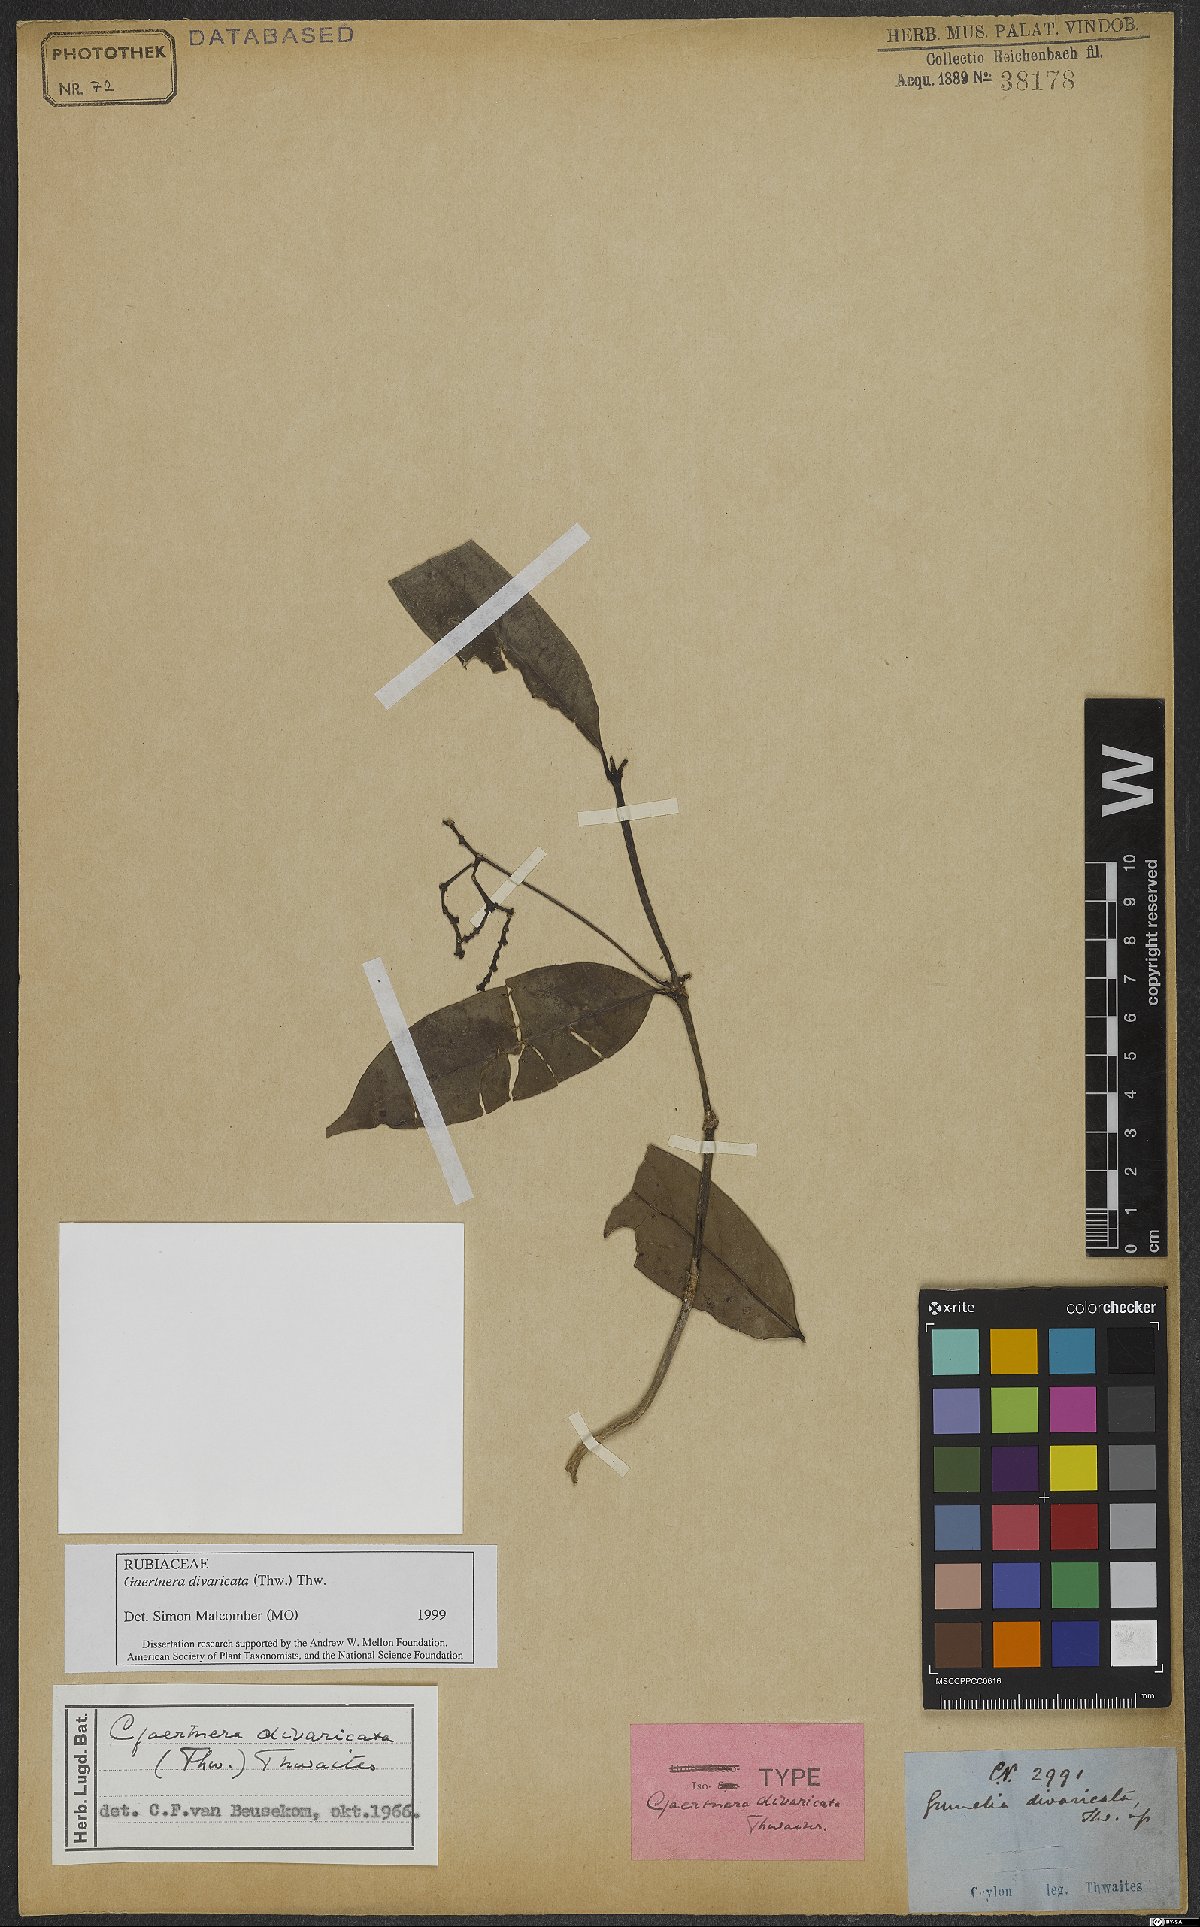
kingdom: Plantae
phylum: Tracheophyta
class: Magnoliopsida
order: Gentianales
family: Rubiaceae
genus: Gaertnera
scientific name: Gaertnera divaricata
